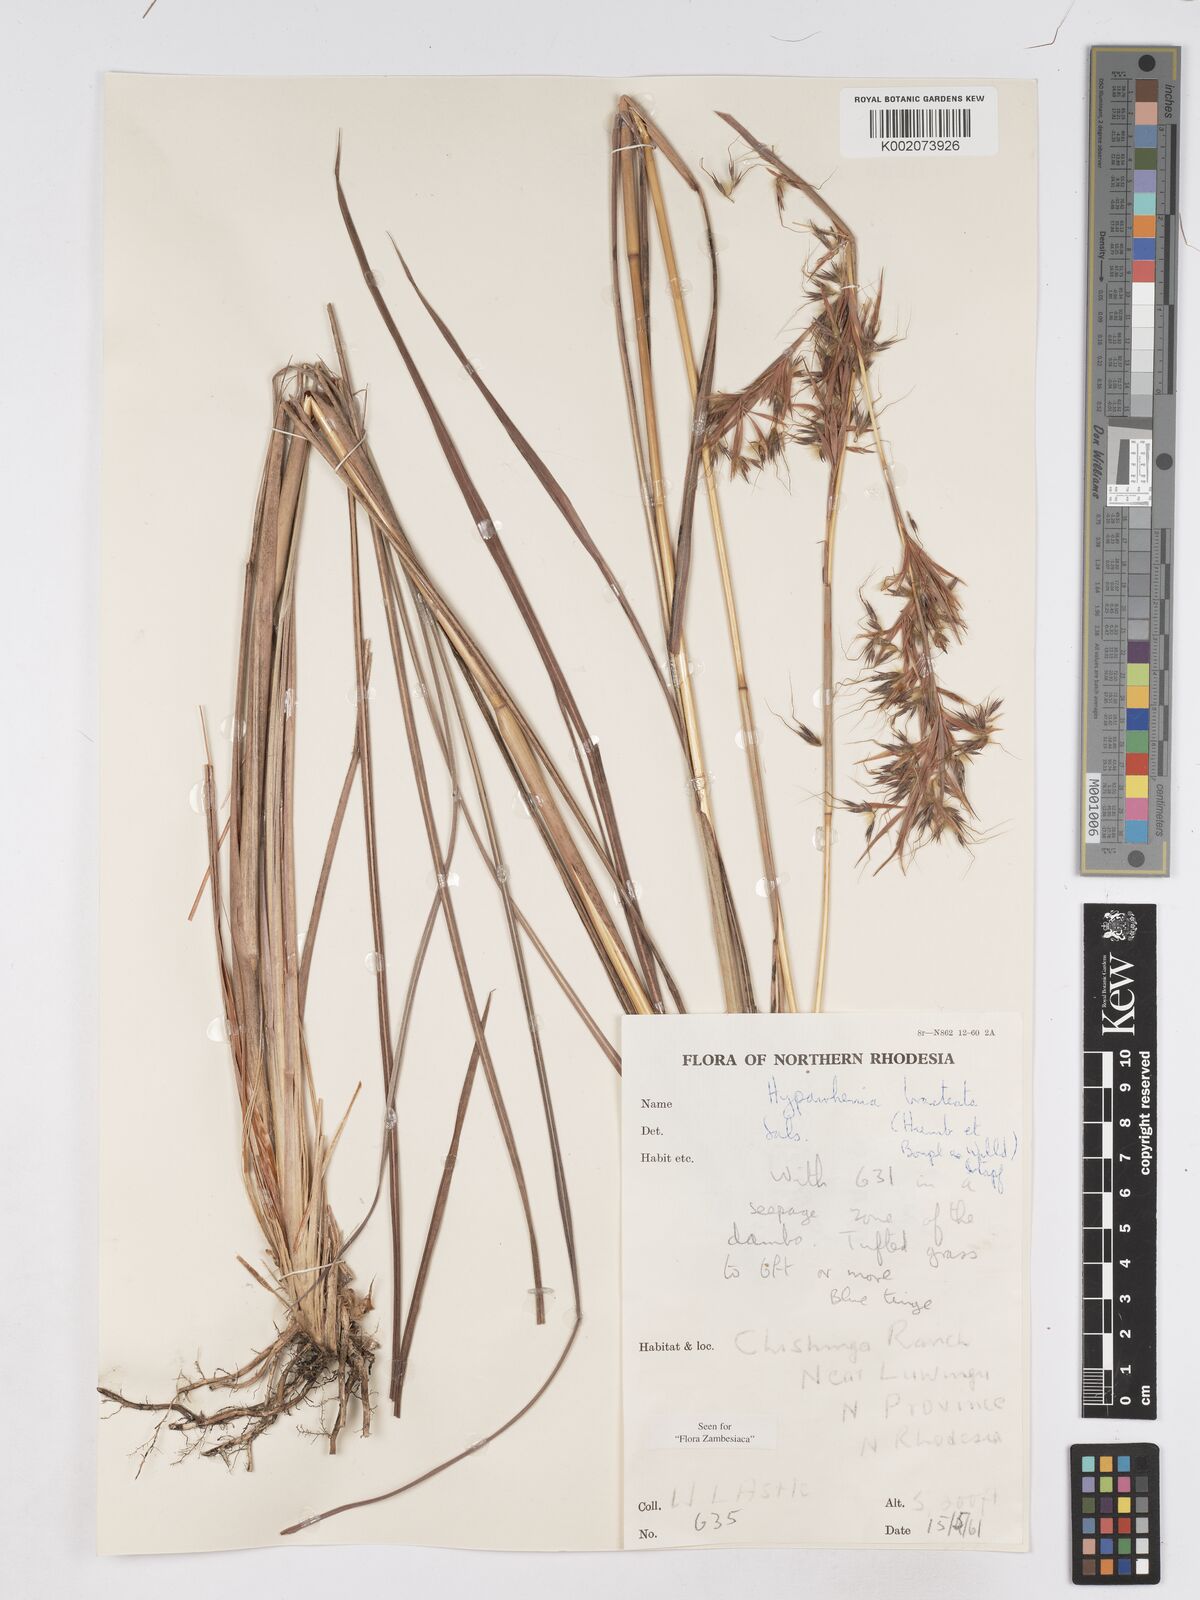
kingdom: Plantae
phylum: Tracheophyta
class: Liliopsida
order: Poales
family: Poaceae
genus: Hyparrhenia
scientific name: Hyparrhenia bracteata
